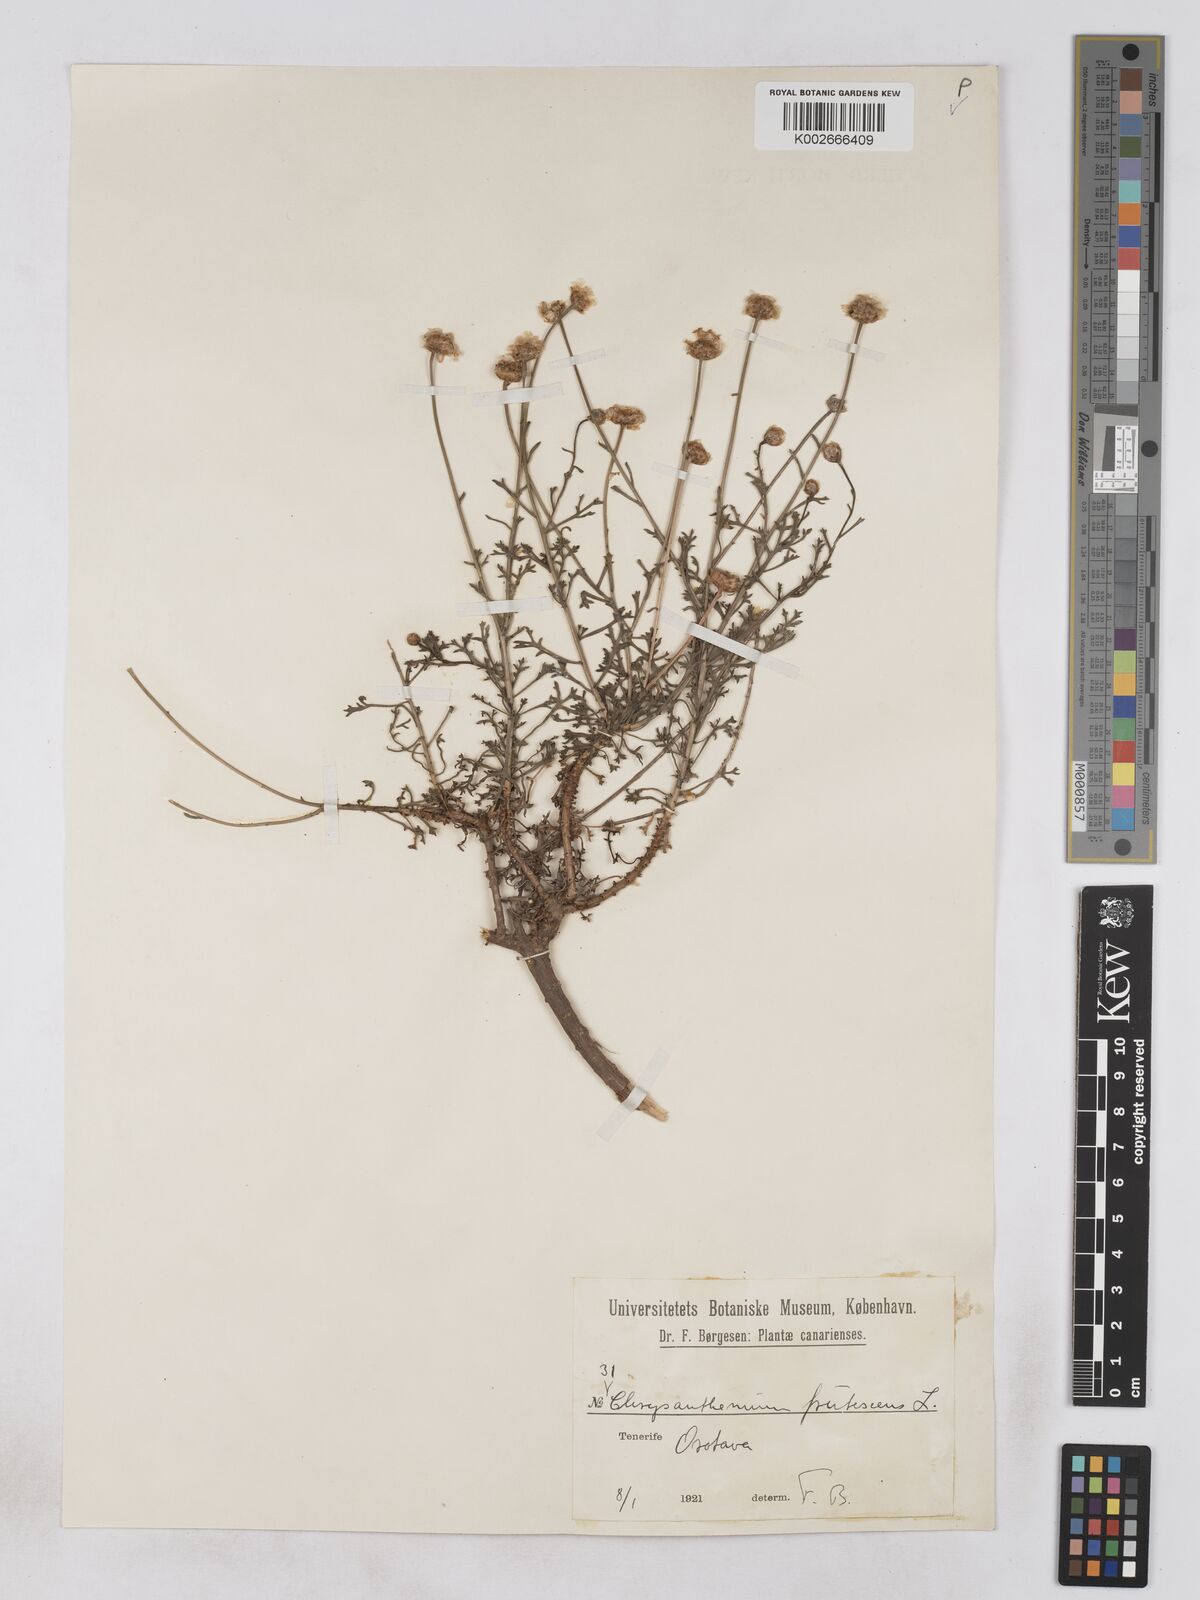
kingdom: Plantae
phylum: Tracheophyta
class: Magnoliopsida
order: Asterales
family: Asteraceae
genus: Argyranthemum
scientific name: Argyranthemum frutescens
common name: Paris daisy
